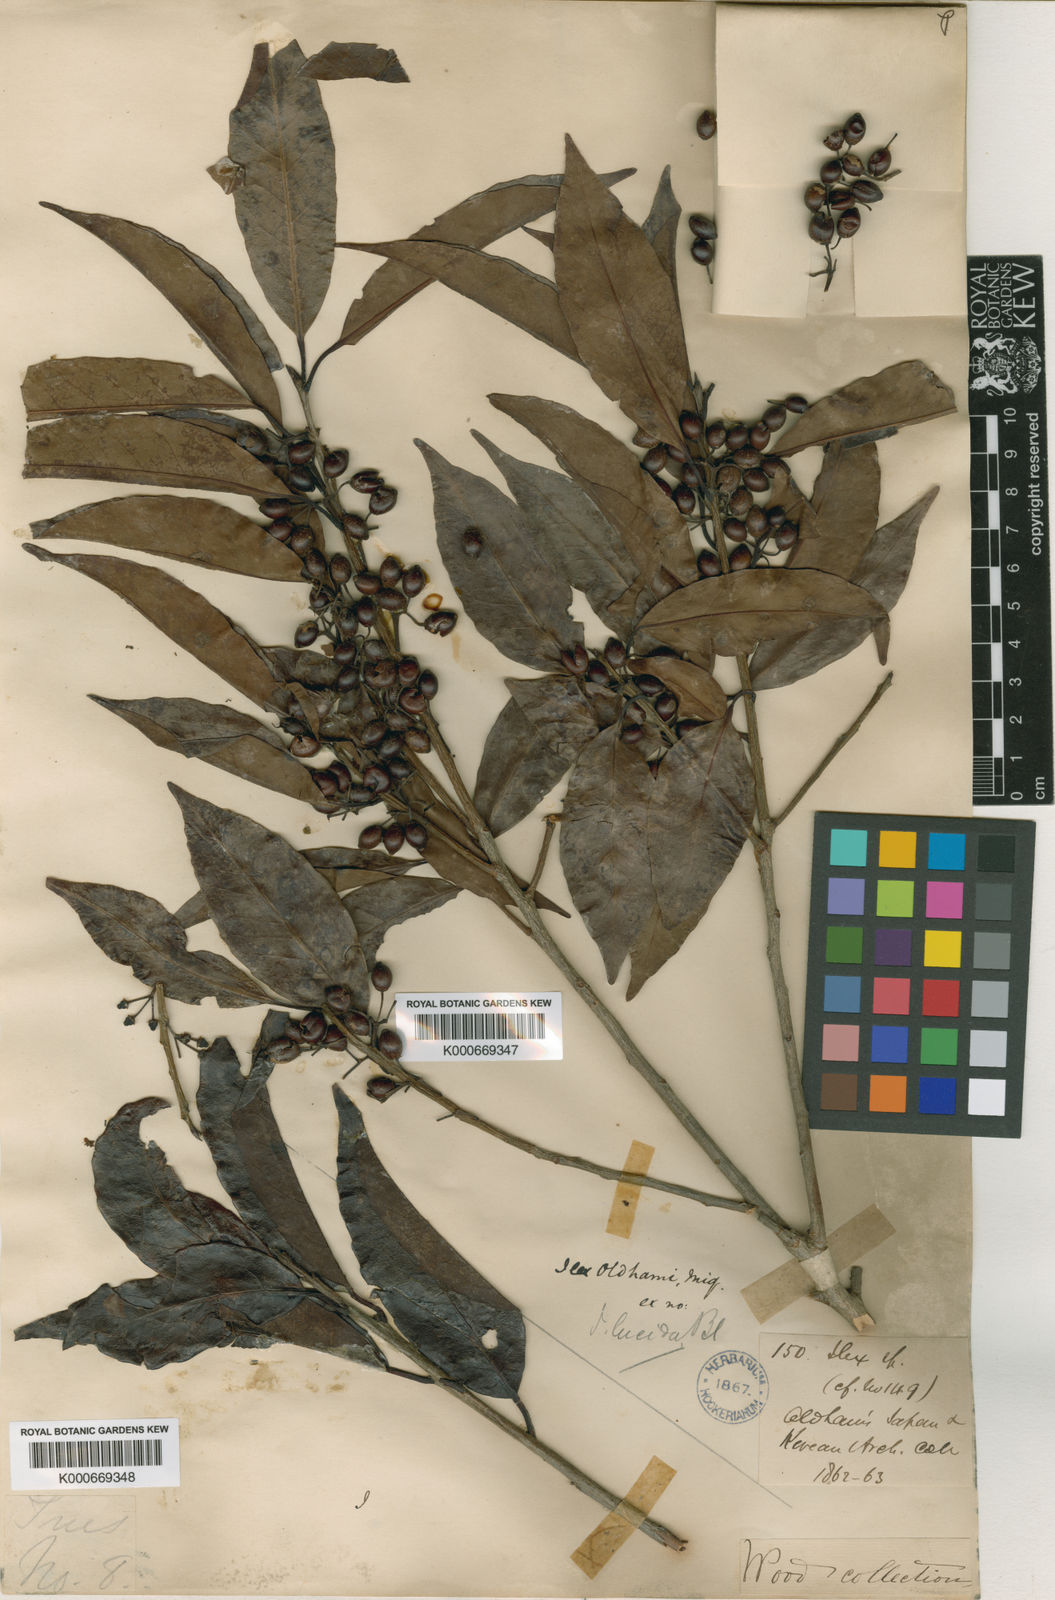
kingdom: Plantae
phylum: Tracheophyta
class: Magnoliopsida
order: Aquifoliales
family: Aquifoliaceae
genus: Ilex
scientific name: Ilex chinensis
